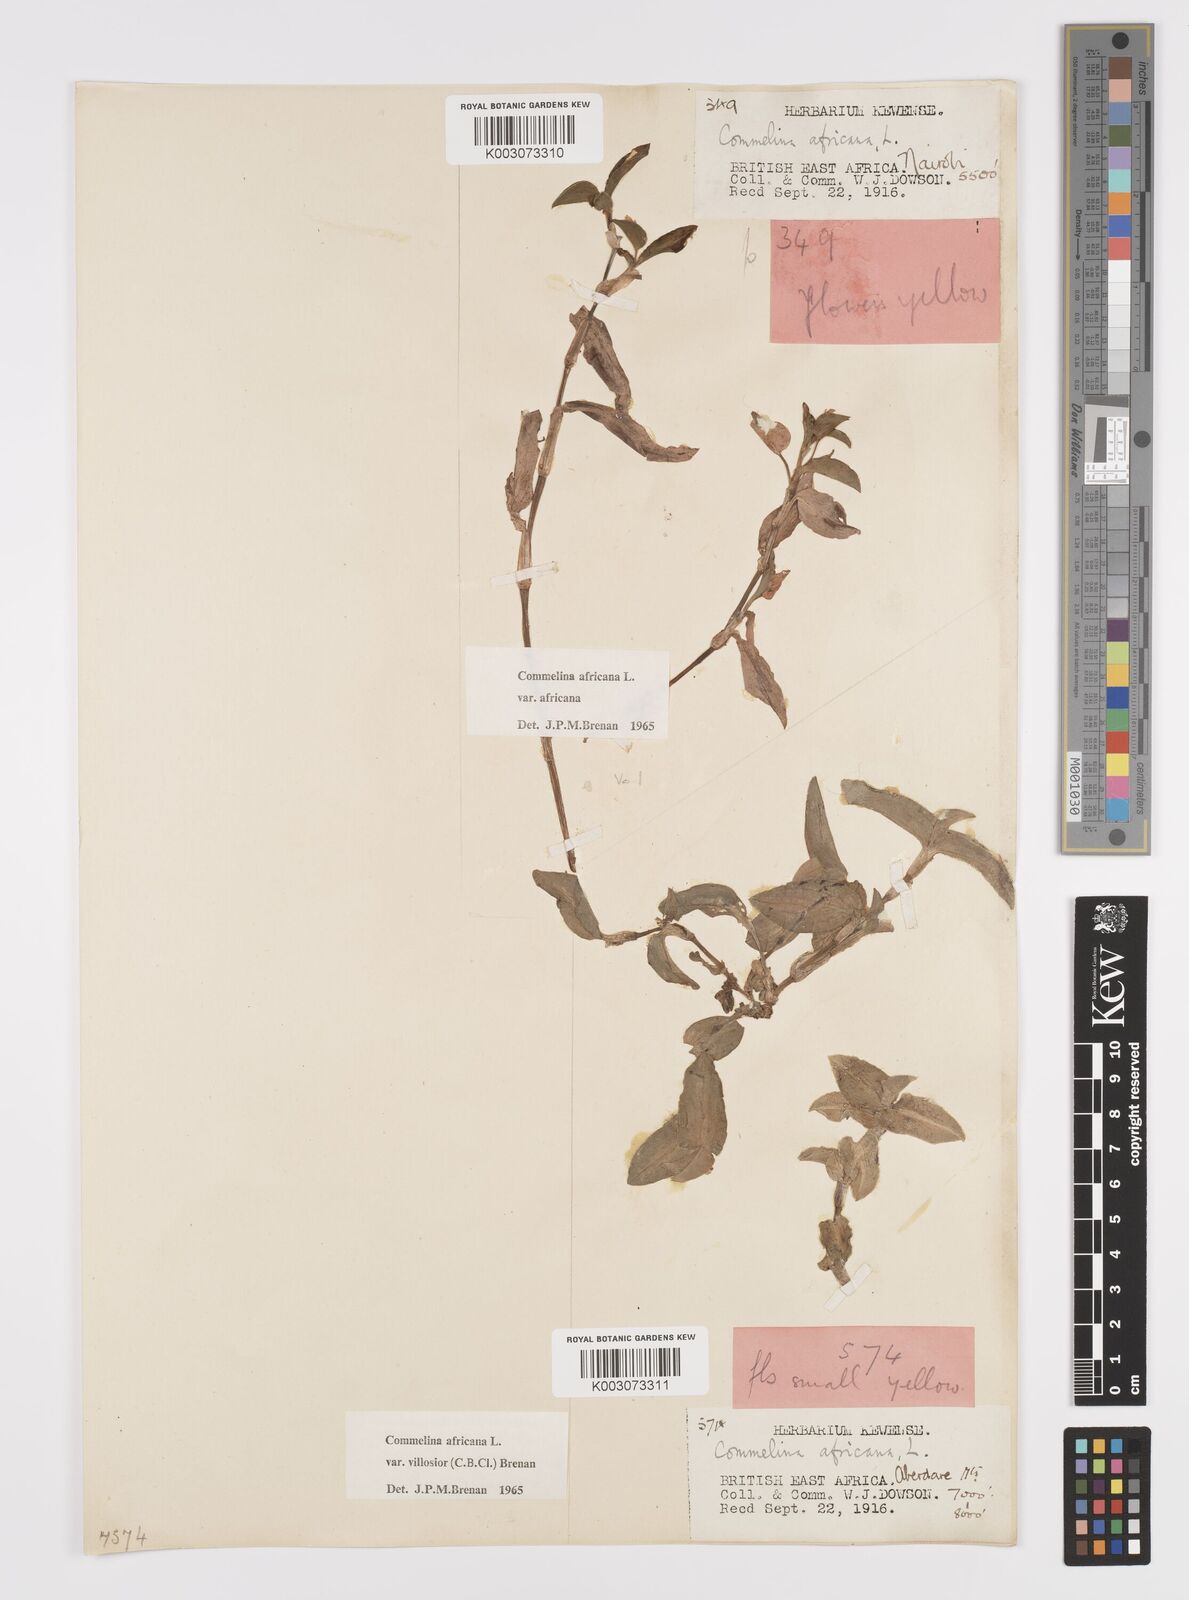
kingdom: Plantae
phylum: Tracheophyta
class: Liliopsida
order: Commelinales
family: Commelinaceae
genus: Commelina
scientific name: Commelina africana
